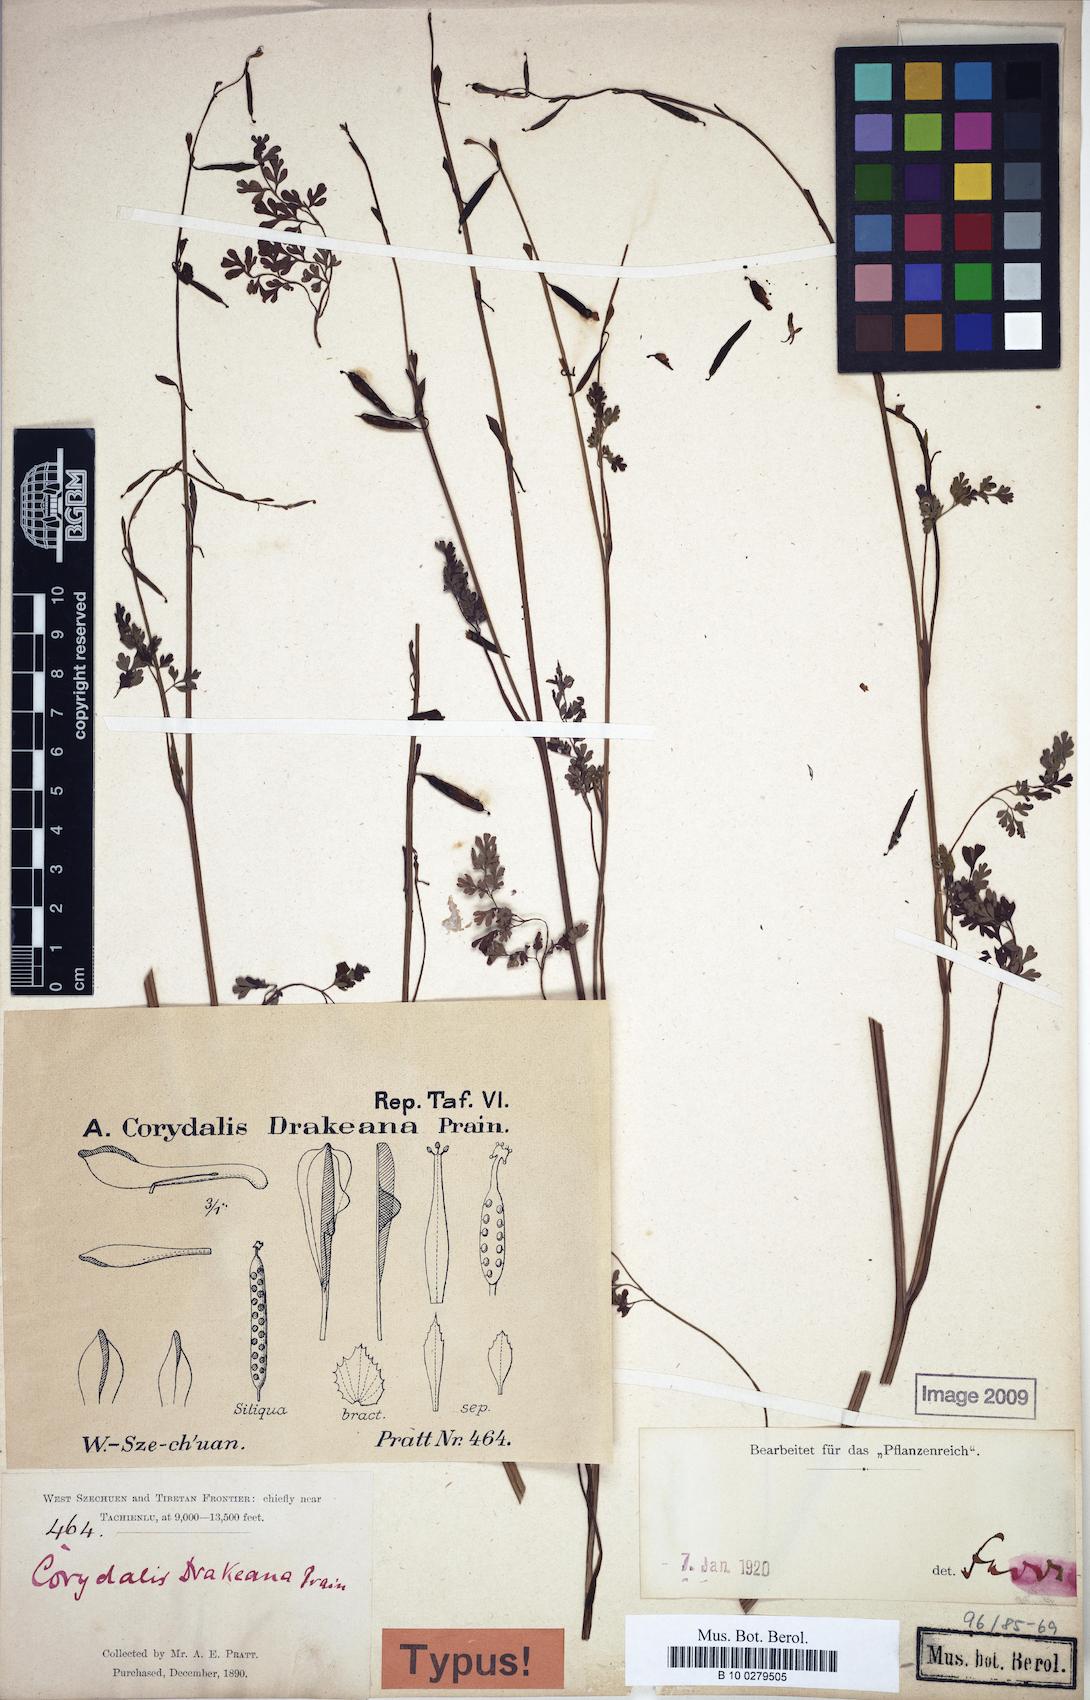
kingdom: Plantae
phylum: Tracheophyta
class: Magnoliopsida
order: Ranunculales
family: Papaveraceae
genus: Corydalis
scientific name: Corydalis drakeana
